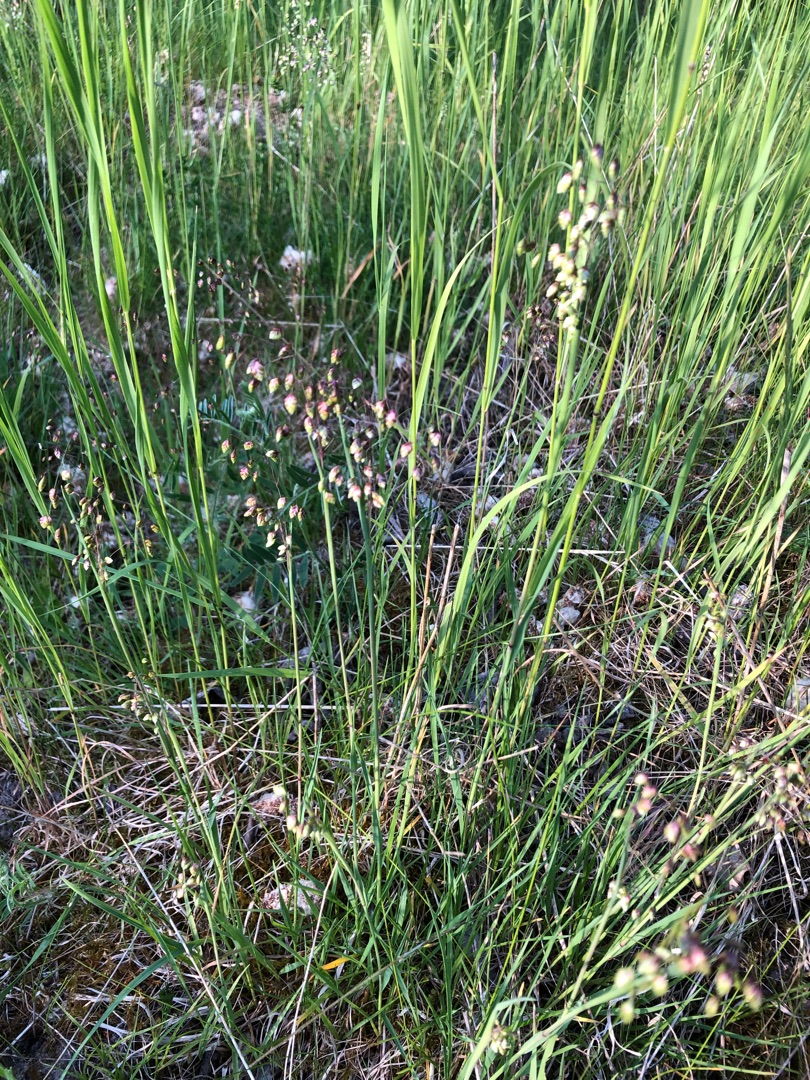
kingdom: Plantae
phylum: Tracheophyta
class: Liliopsida
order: Poales
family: Poaceae
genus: Briza
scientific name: Briza media
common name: Hjertegræs
